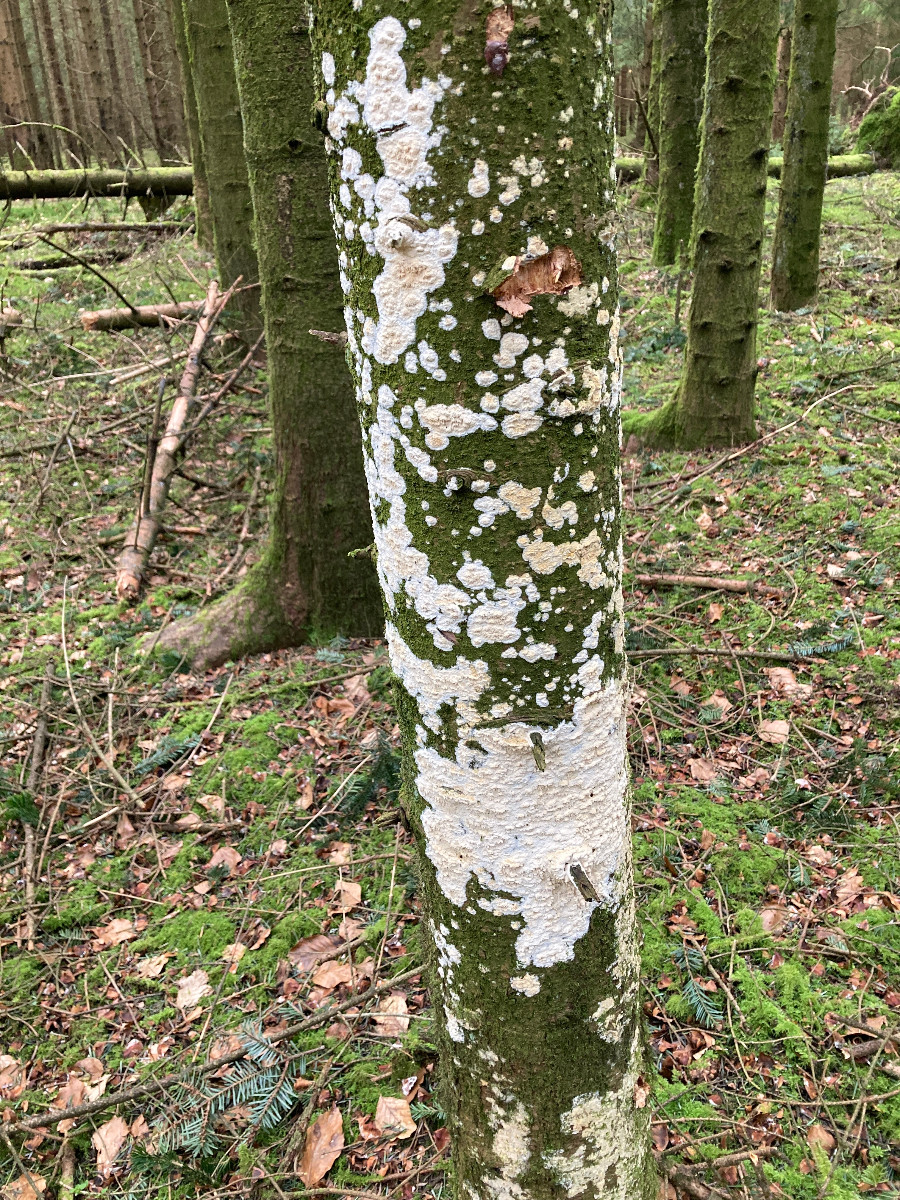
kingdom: Fungi
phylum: Basidiomycota
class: Agaricomycetes
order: Hymenochaetales
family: Schizoporaceae
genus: Xylodon
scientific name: Xylodon
